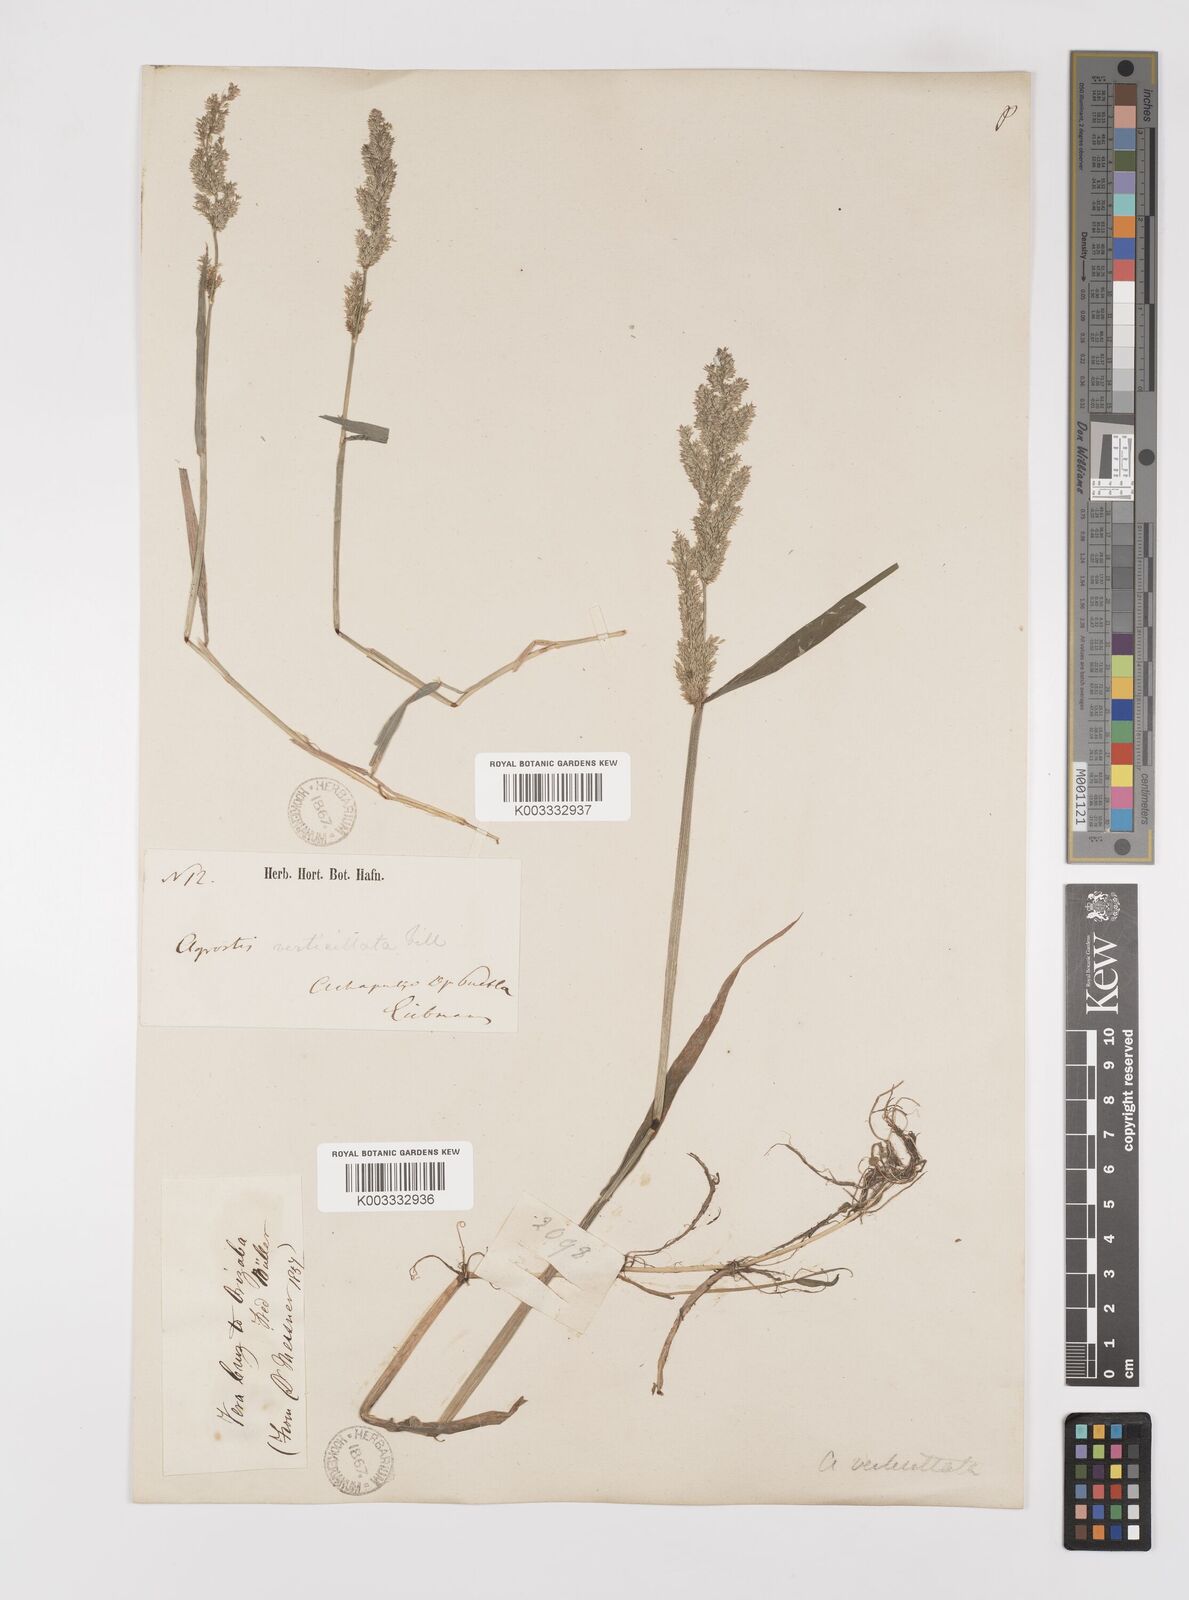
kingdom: Plantae
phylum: Tracheophyta
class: Liliopsida
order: Poales
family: Poaceae
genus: Polypogon
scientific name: Polypogon viridis
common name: Water bent
